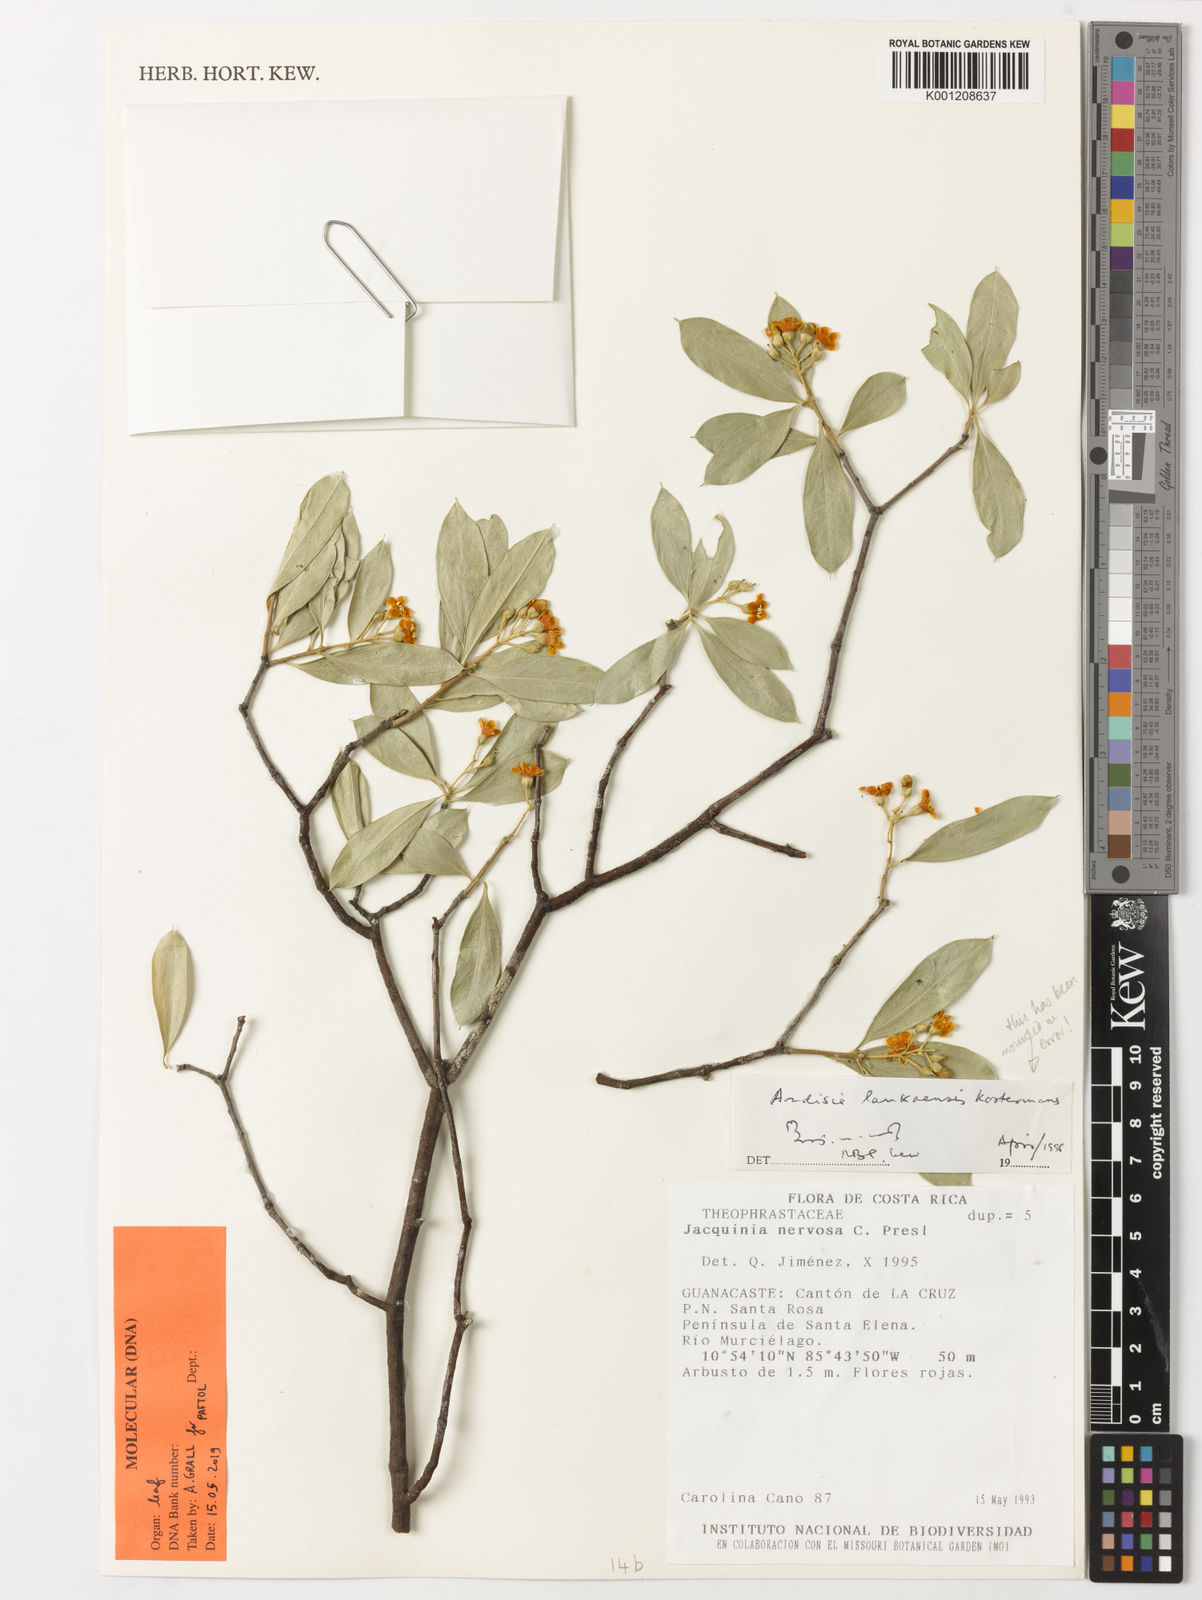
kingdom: Plantae
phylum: Tracheophyta
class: Magnoliopsida
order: Ericales
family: Primulaceae
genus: Jacquinia
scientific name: Jacquinia
